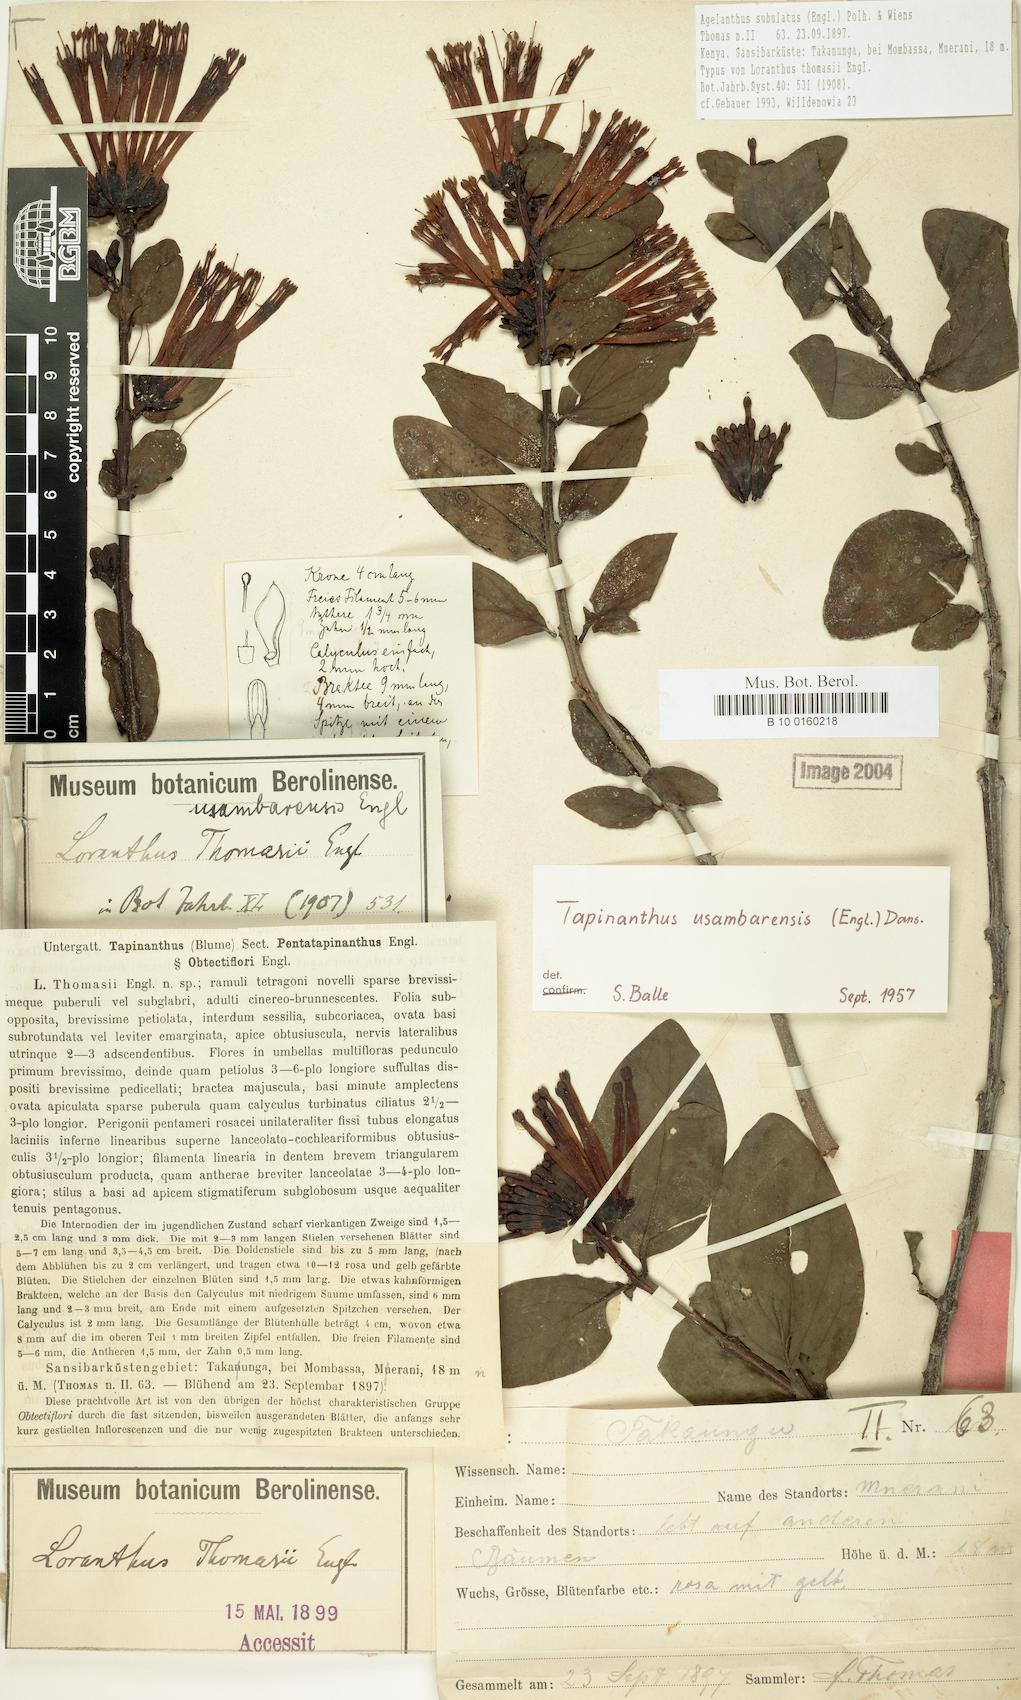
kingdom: Plantae
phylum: Tracheophyta
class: Magnoliopsida
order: Santalales
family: Loranthaceae
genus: Agelanthus
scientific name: Agelanthus subulatus
